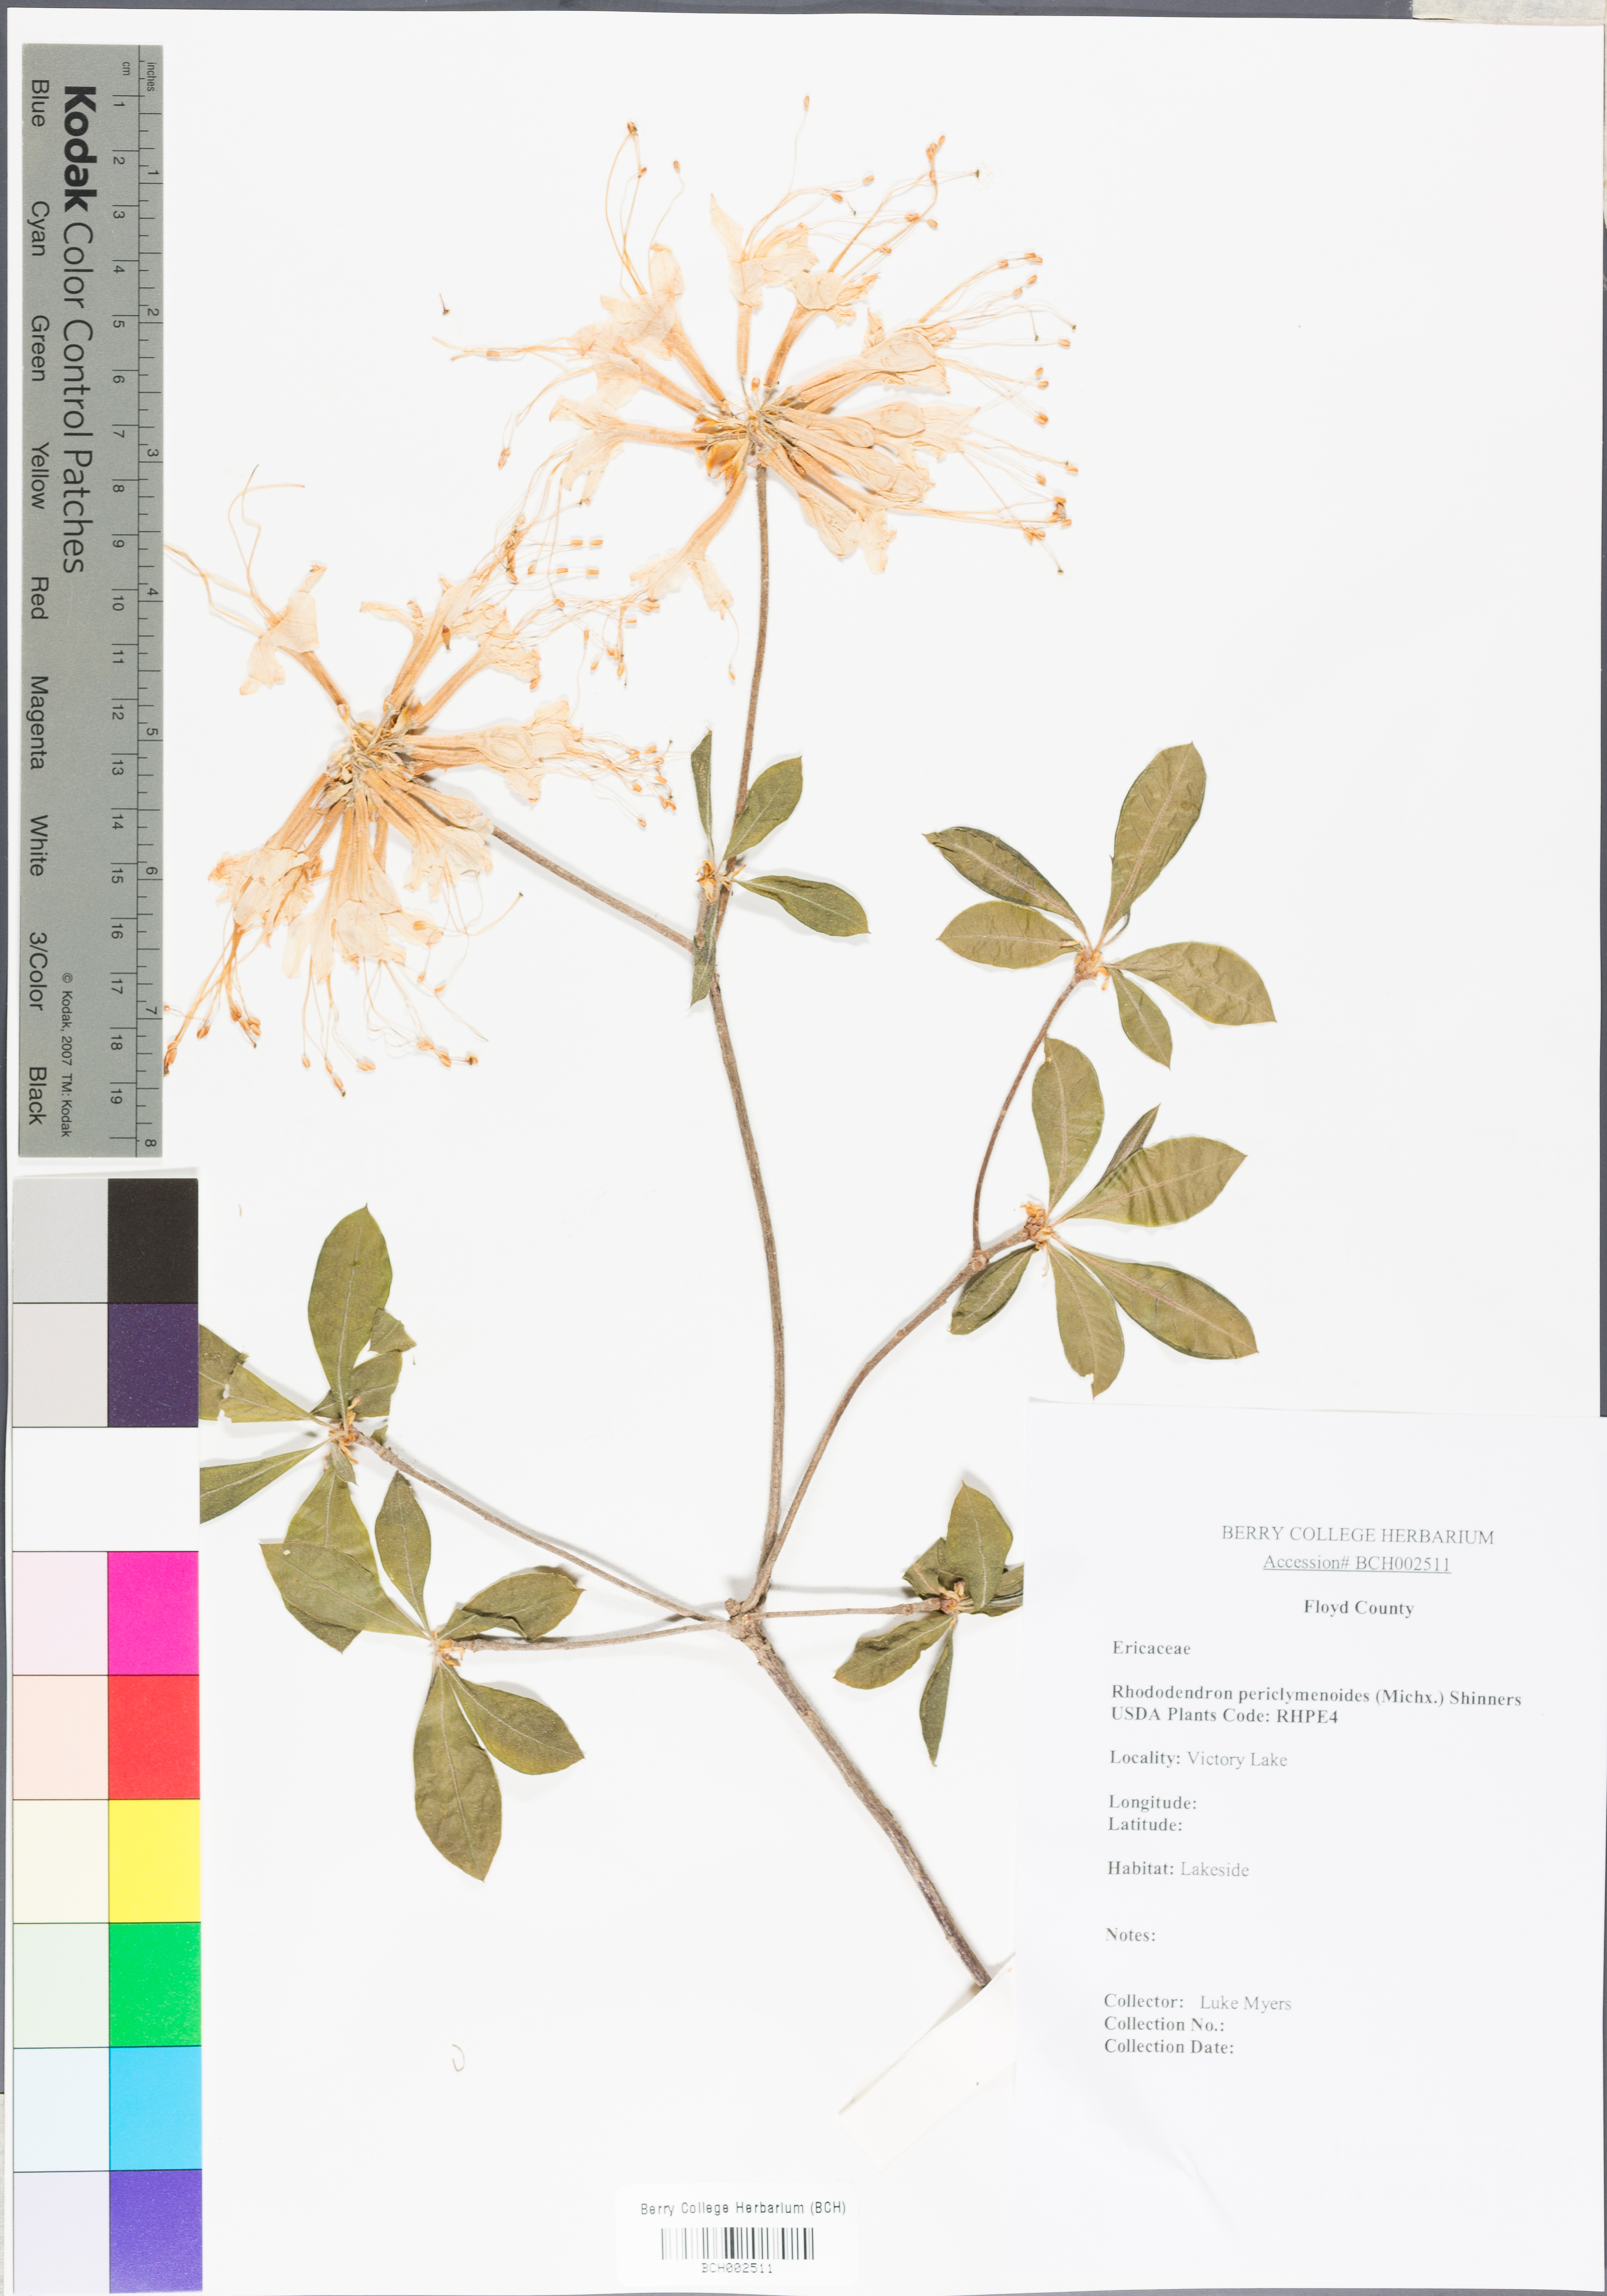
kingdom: Plantae
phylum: Tracheophyta
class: Magnoliopsida
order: Ericales
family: Ericaceae
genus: Rhododendron
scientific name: Rhododendron periclymenoides
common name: Election-pink
